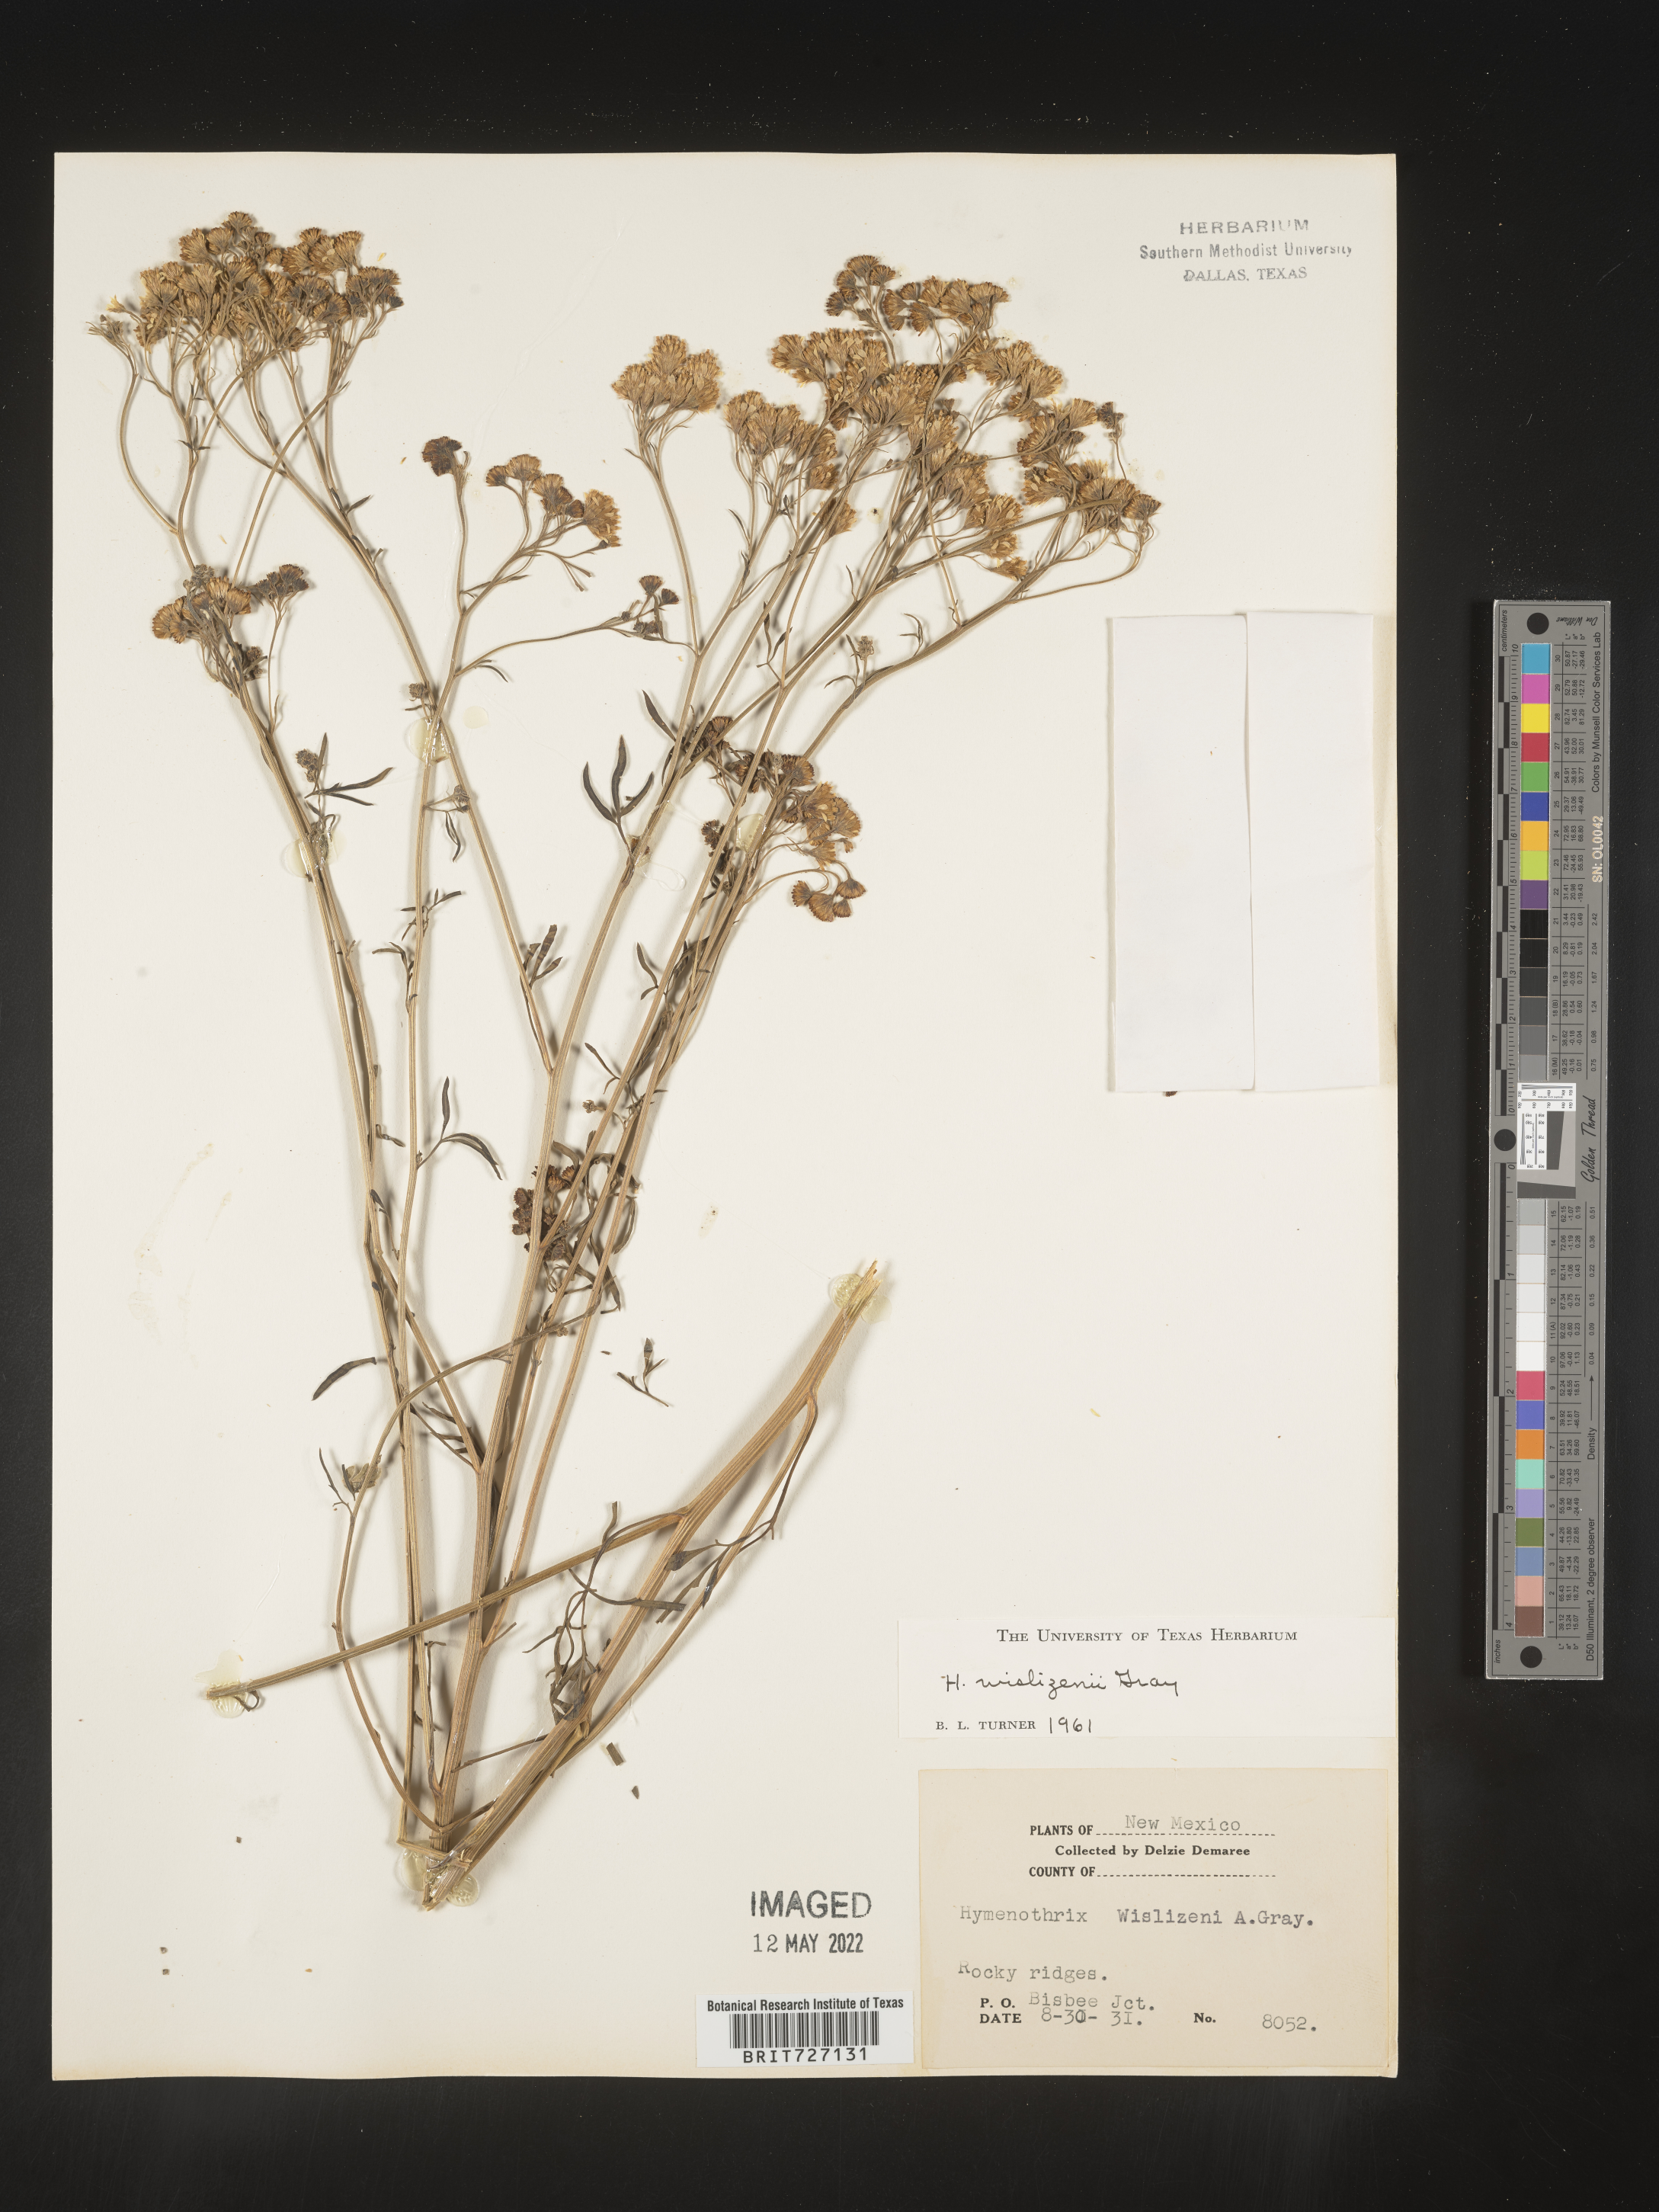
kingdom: Plantae
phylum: Tracheophyta
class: Magnoliopsida
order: Asterales
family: Asteraceae
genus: Hymenothrix
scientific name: Hymenothrix wislizeni
